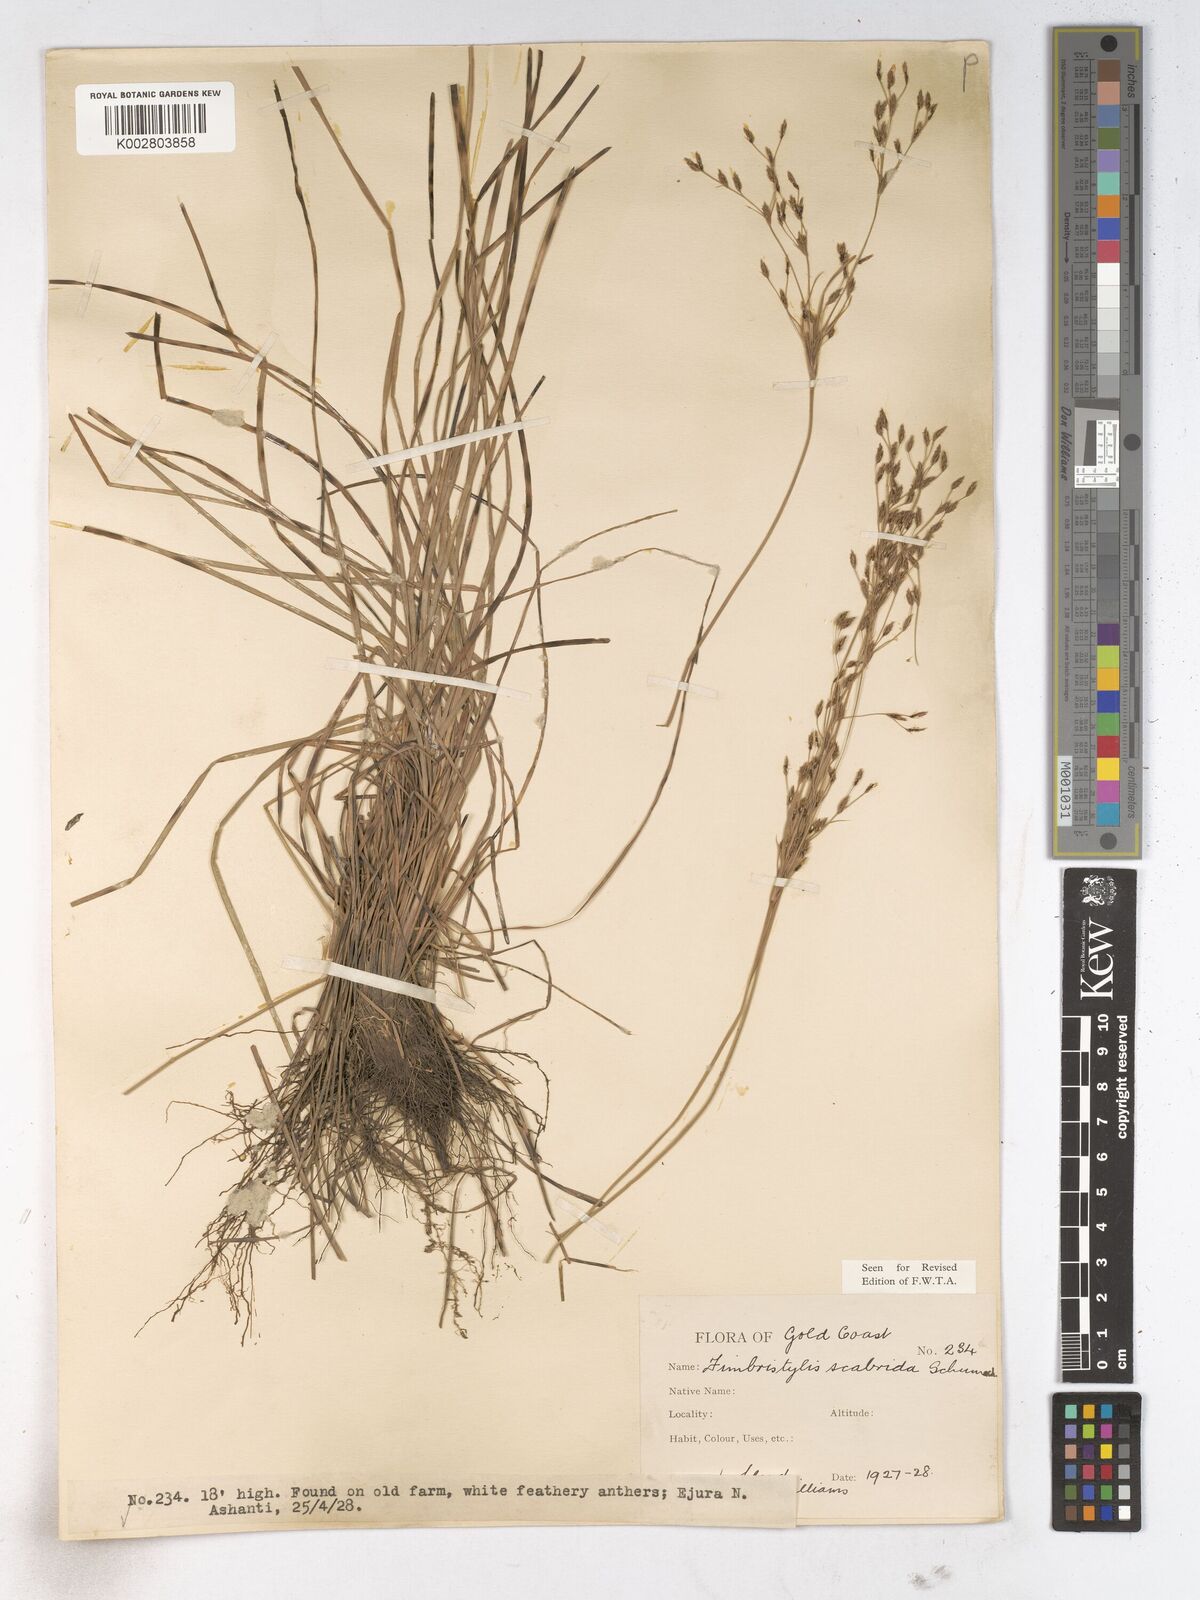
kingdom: Plantae
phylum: Tracheophyta
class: Liliopsida
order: Poales
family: Cyperaceae
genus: Fimbristylis
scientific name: Fimbristylis scabrida
